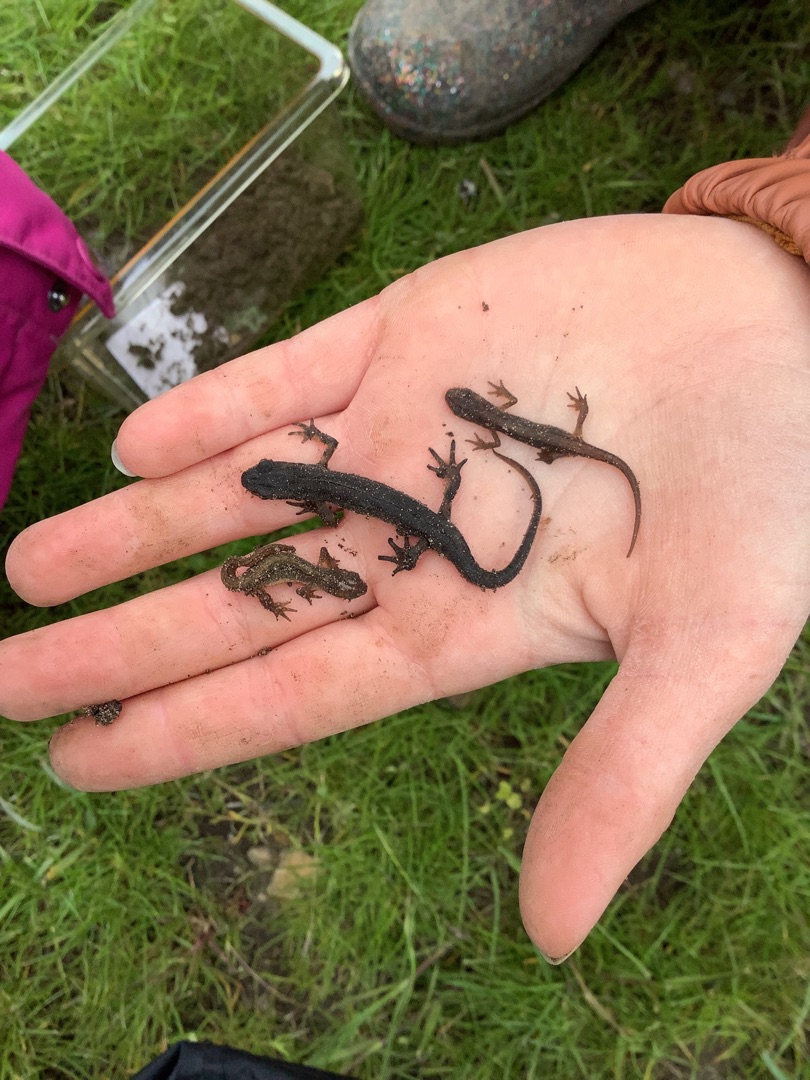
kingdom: Animalia
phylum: Chordata
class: Amphibia
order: Caudata
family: Salamandridae
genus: Lissotriton
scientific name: Lissotriton vulgaris
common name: Lille vandsalamander
